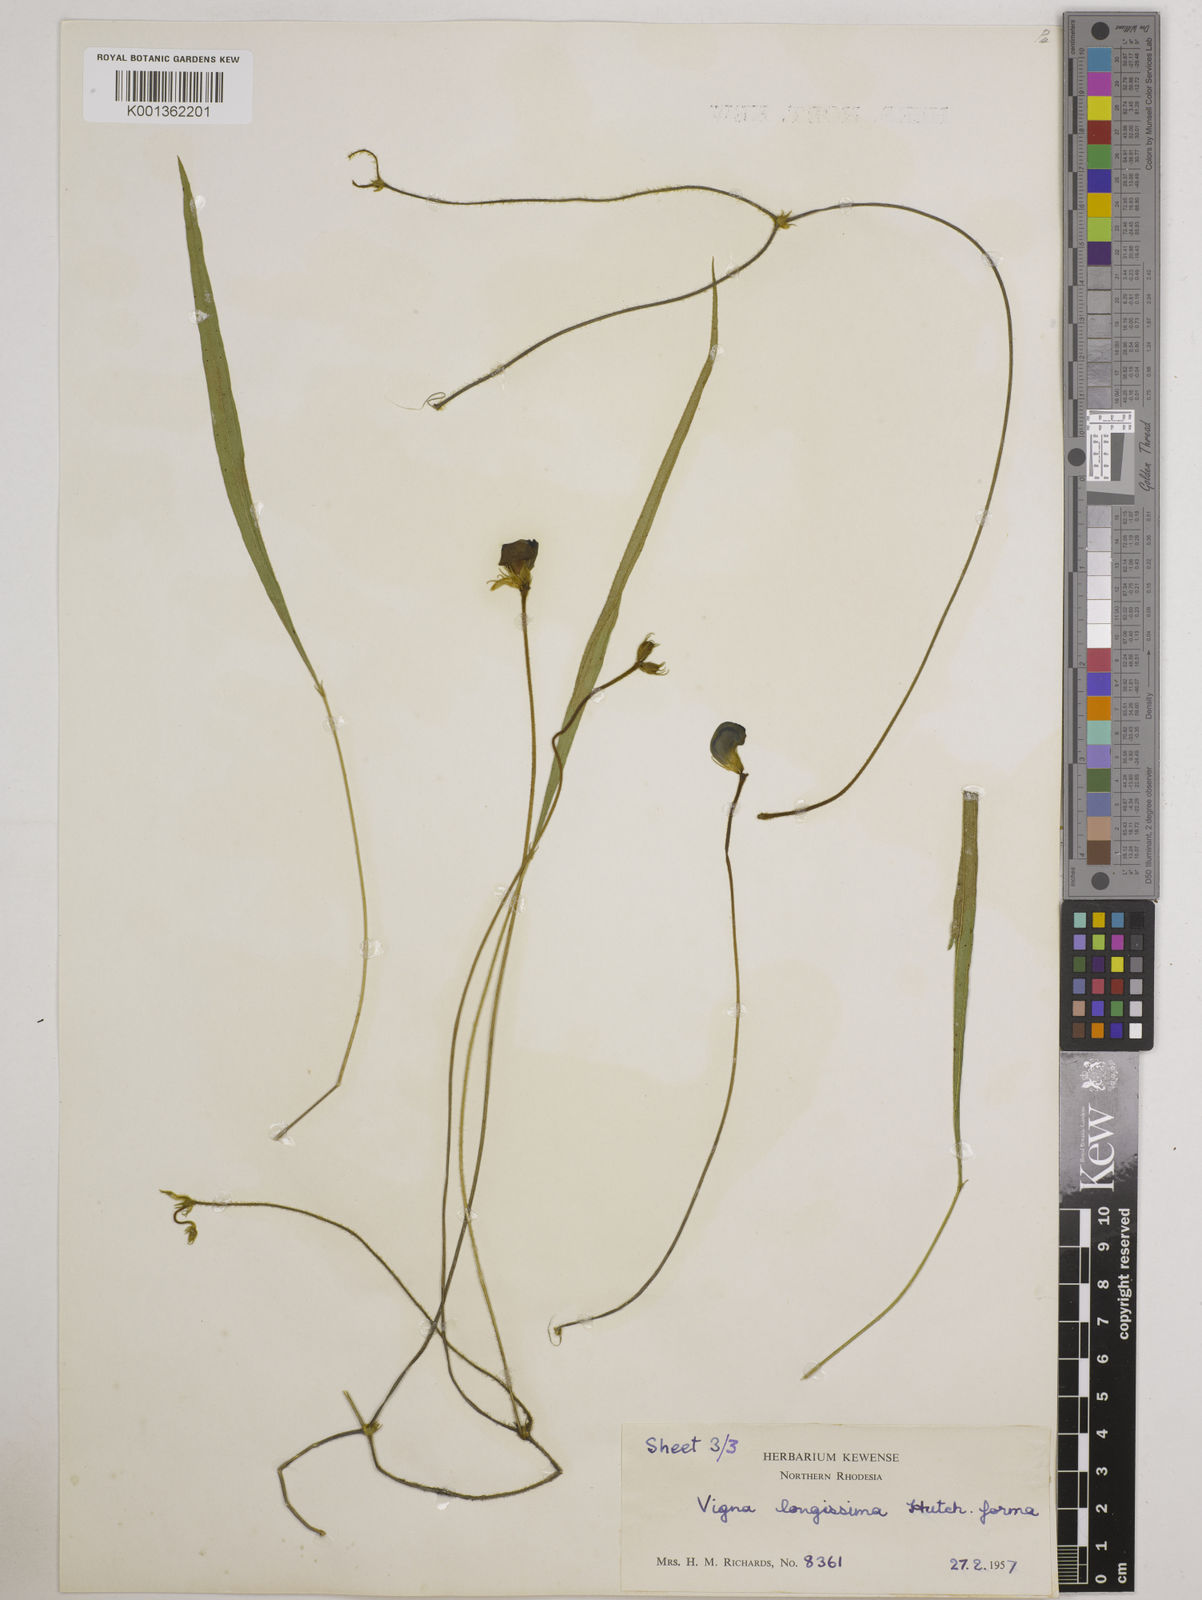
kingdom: Plantae
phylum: Tracheophyta
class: Magnoliopsida
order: Fabales
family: Fabaceae
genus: Vigna
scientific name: Vigna longissima
